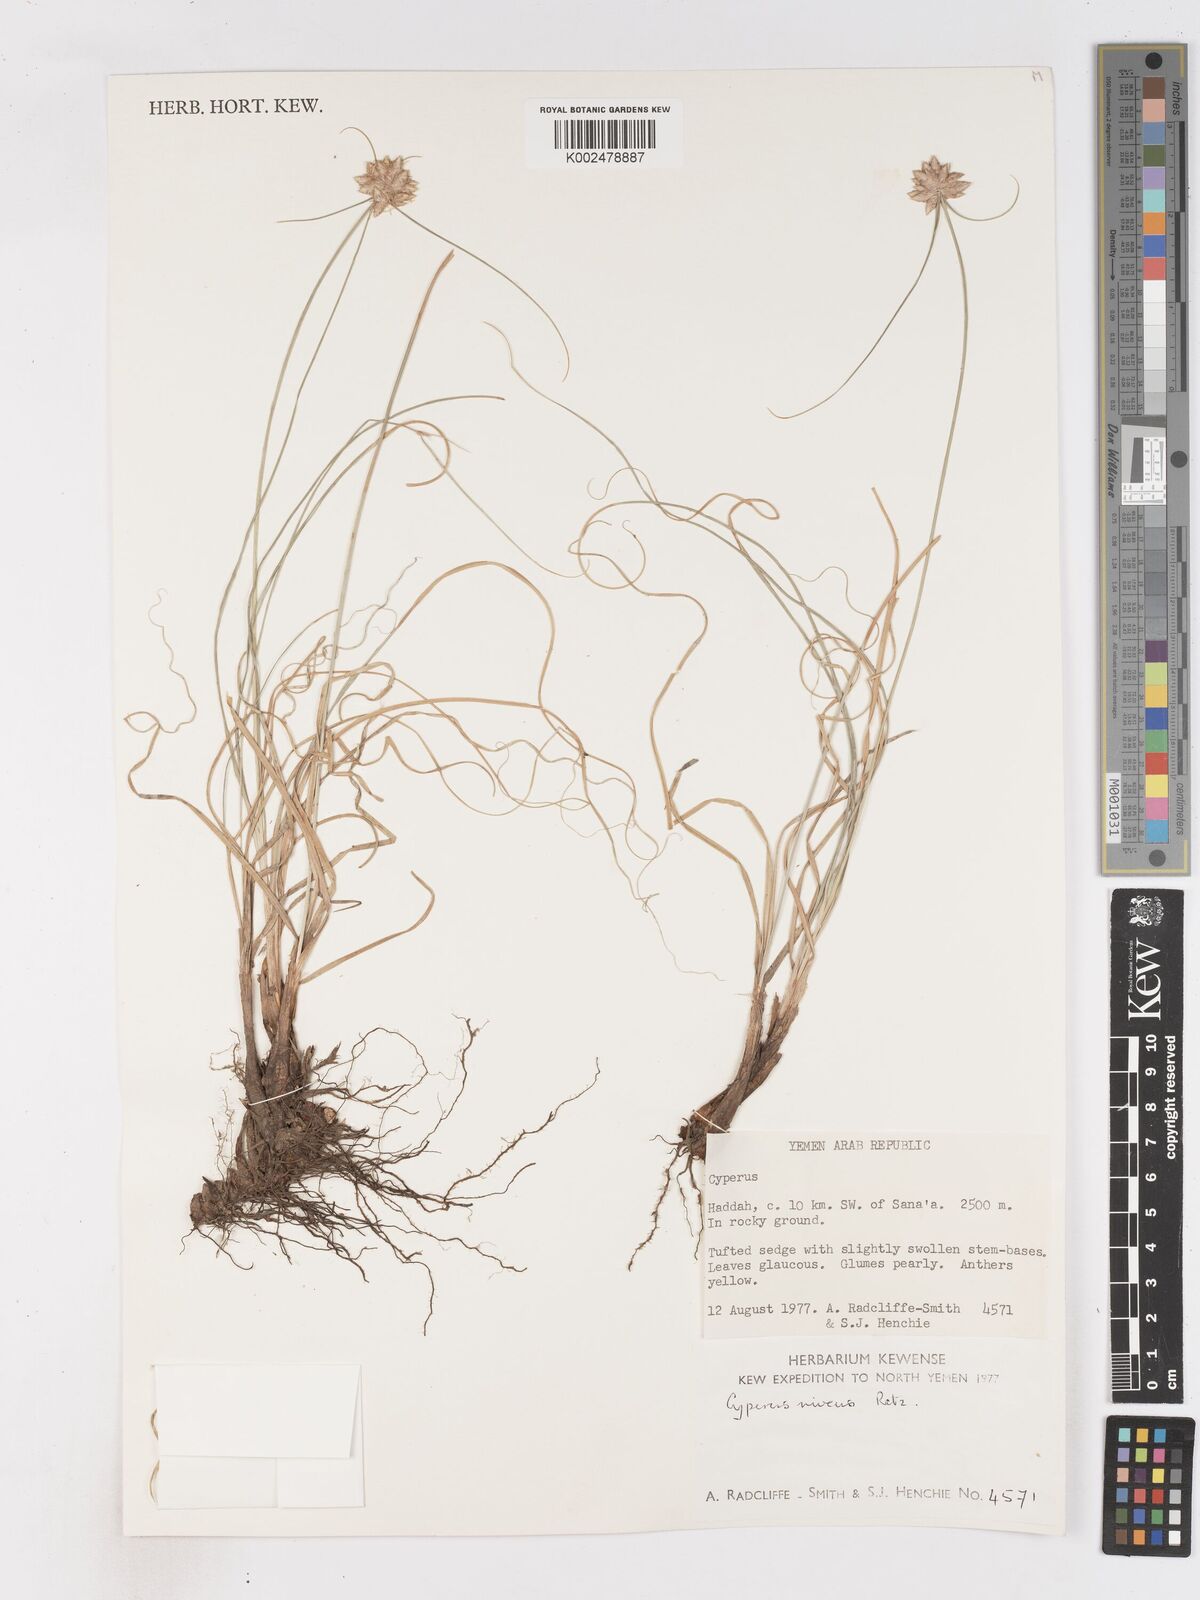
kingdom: Plantae
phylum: Tracheophyta
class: Liliopsida
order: Poales
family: Cyperaceae
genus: Cyperus
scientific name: Cyperus niveus
